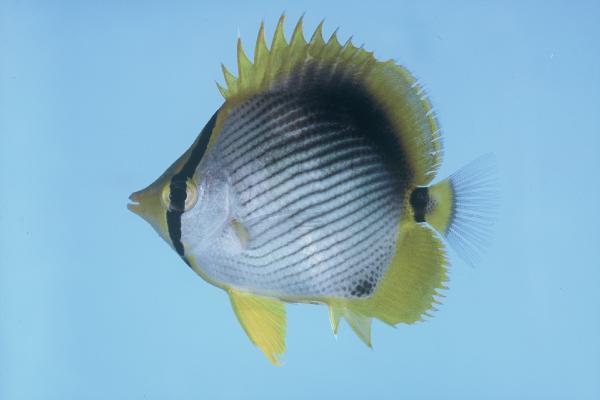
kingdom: Animalia
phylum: Chordata
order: Perciformes
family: Chaetodontidae
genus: Chaetodon
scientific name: Chaetodon melannotus
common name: Blackback butterflyfish
